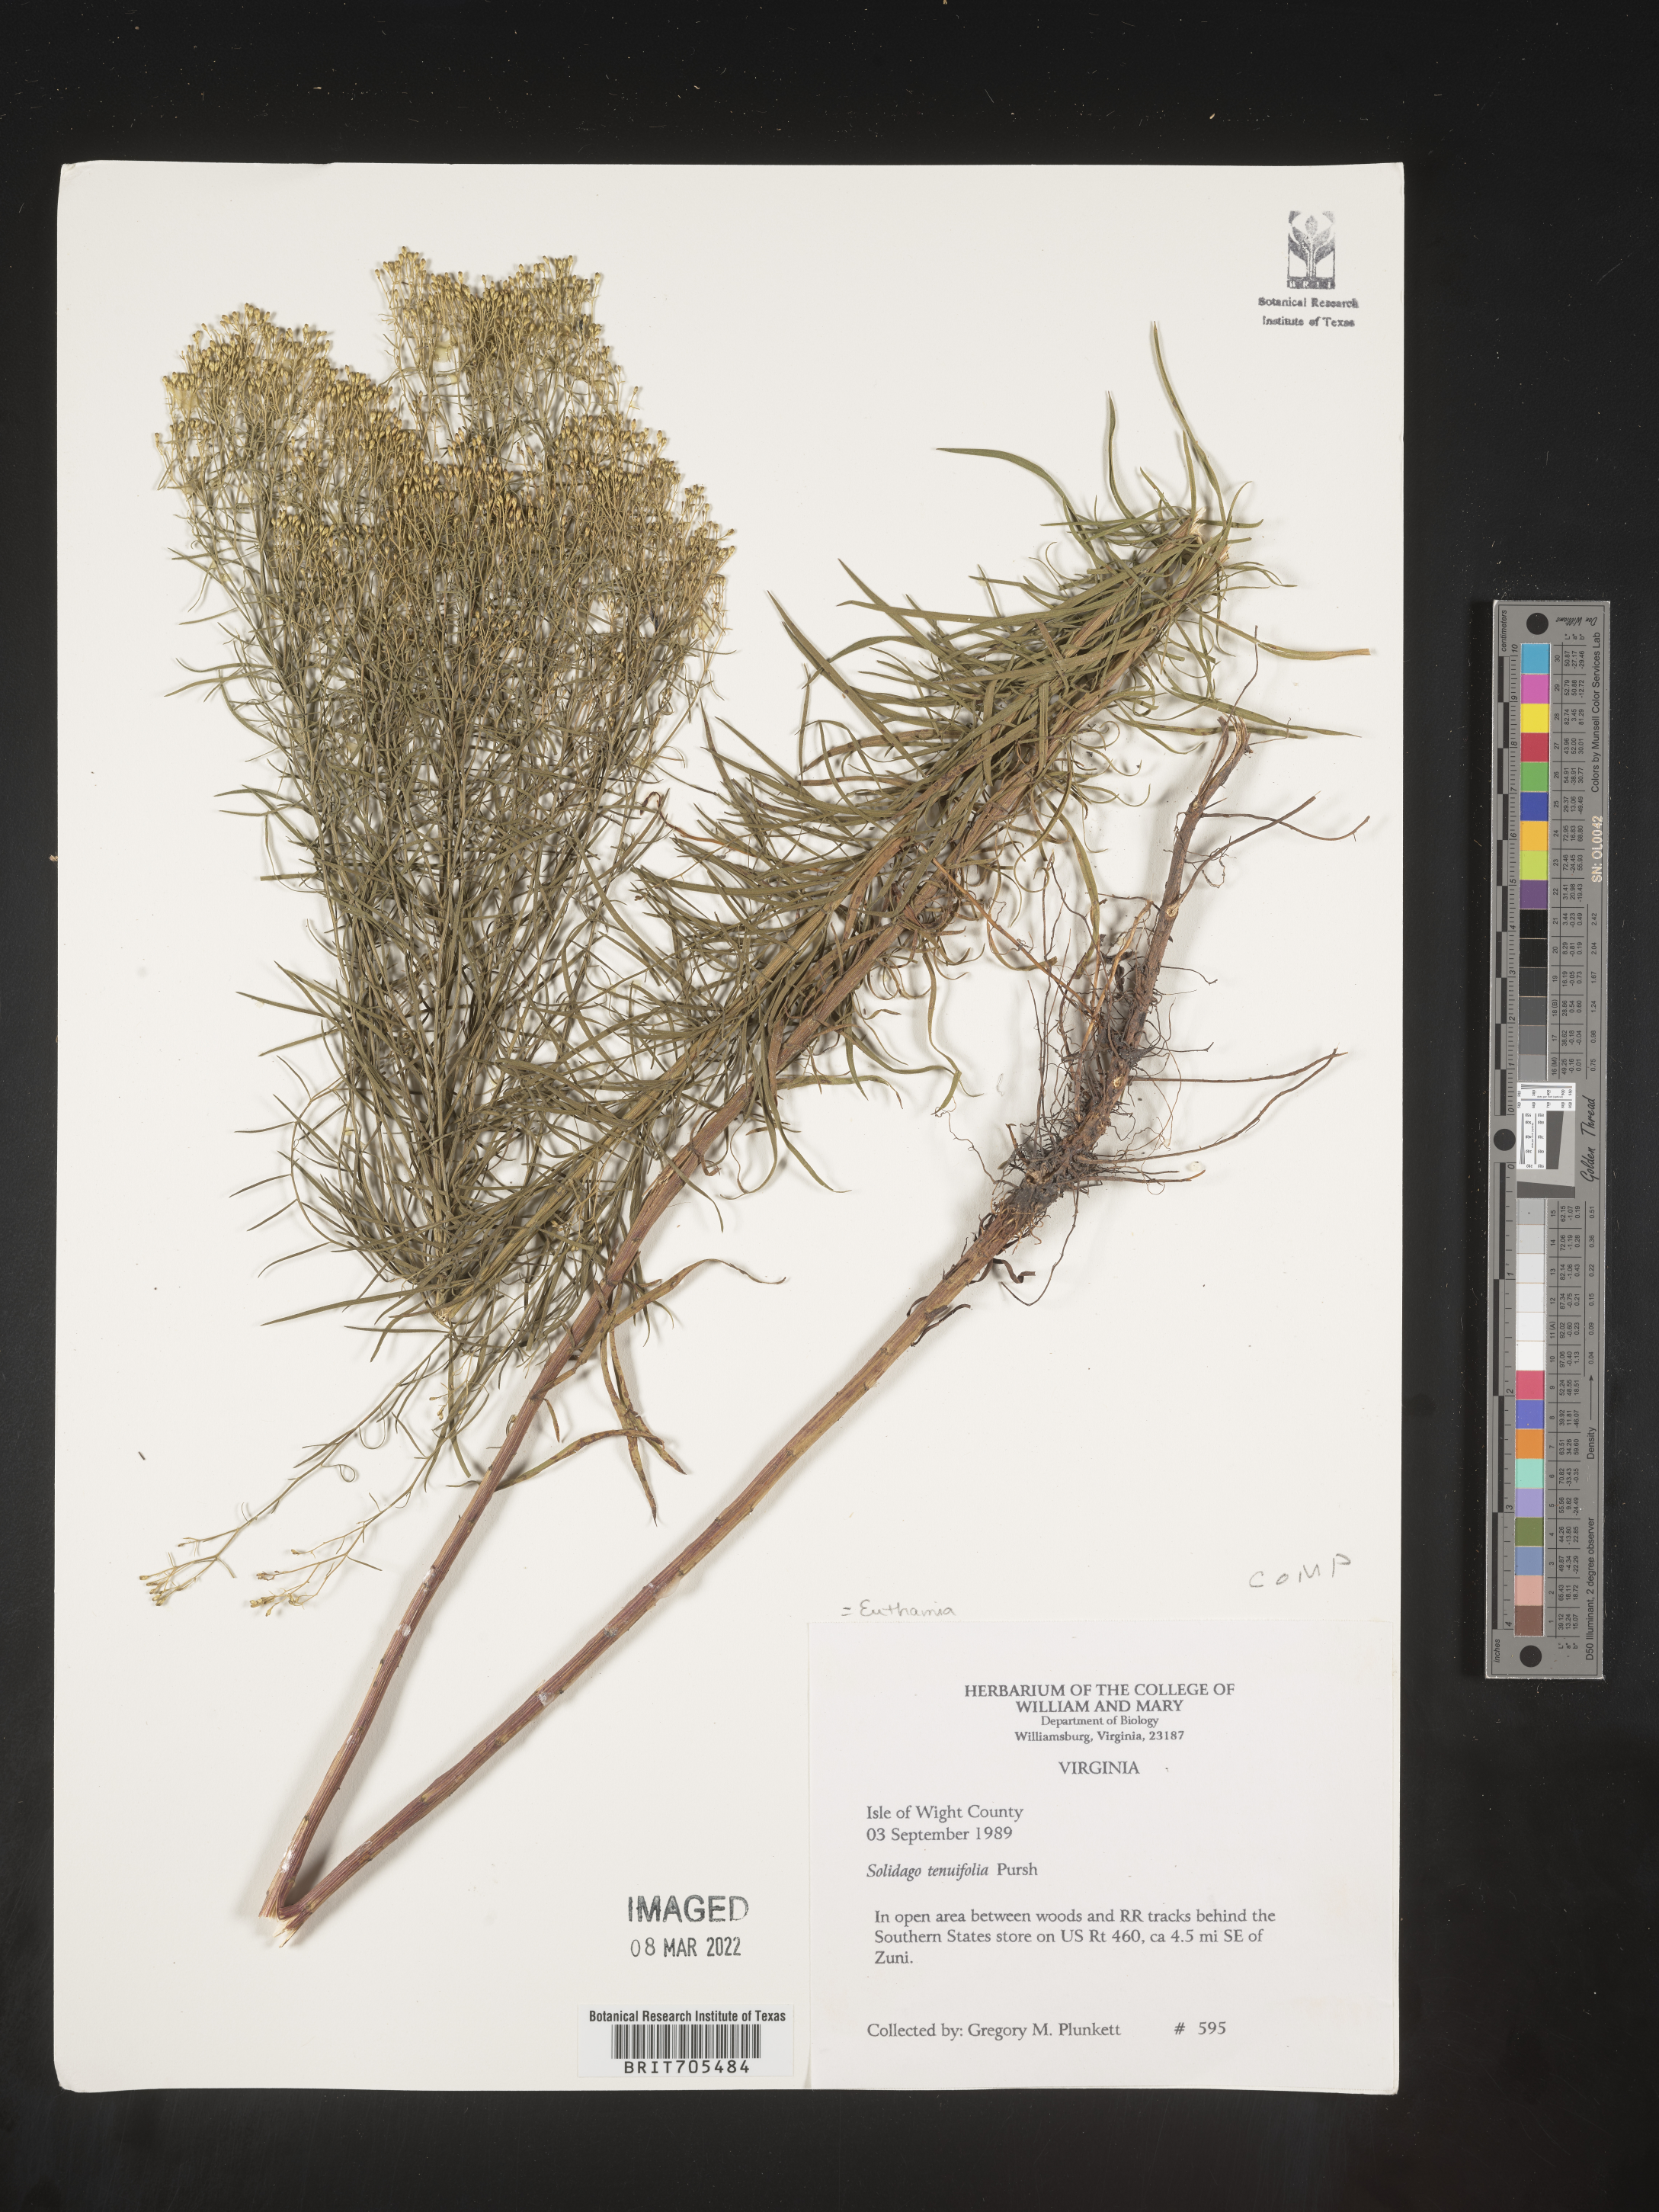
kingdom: Plantae
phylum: Tracheophyta
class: Magnoliopsida
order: Asterales
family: Asteraceae
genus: Euthamia
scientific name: Euthamia caroliniana
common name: Coastal plain goldentop
